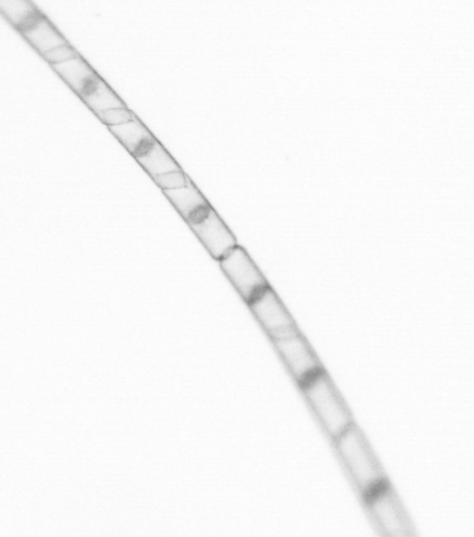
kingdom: Chromista
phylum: Ochrophyta
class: Bacillariophyceae
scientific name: Bacillariophyceae
